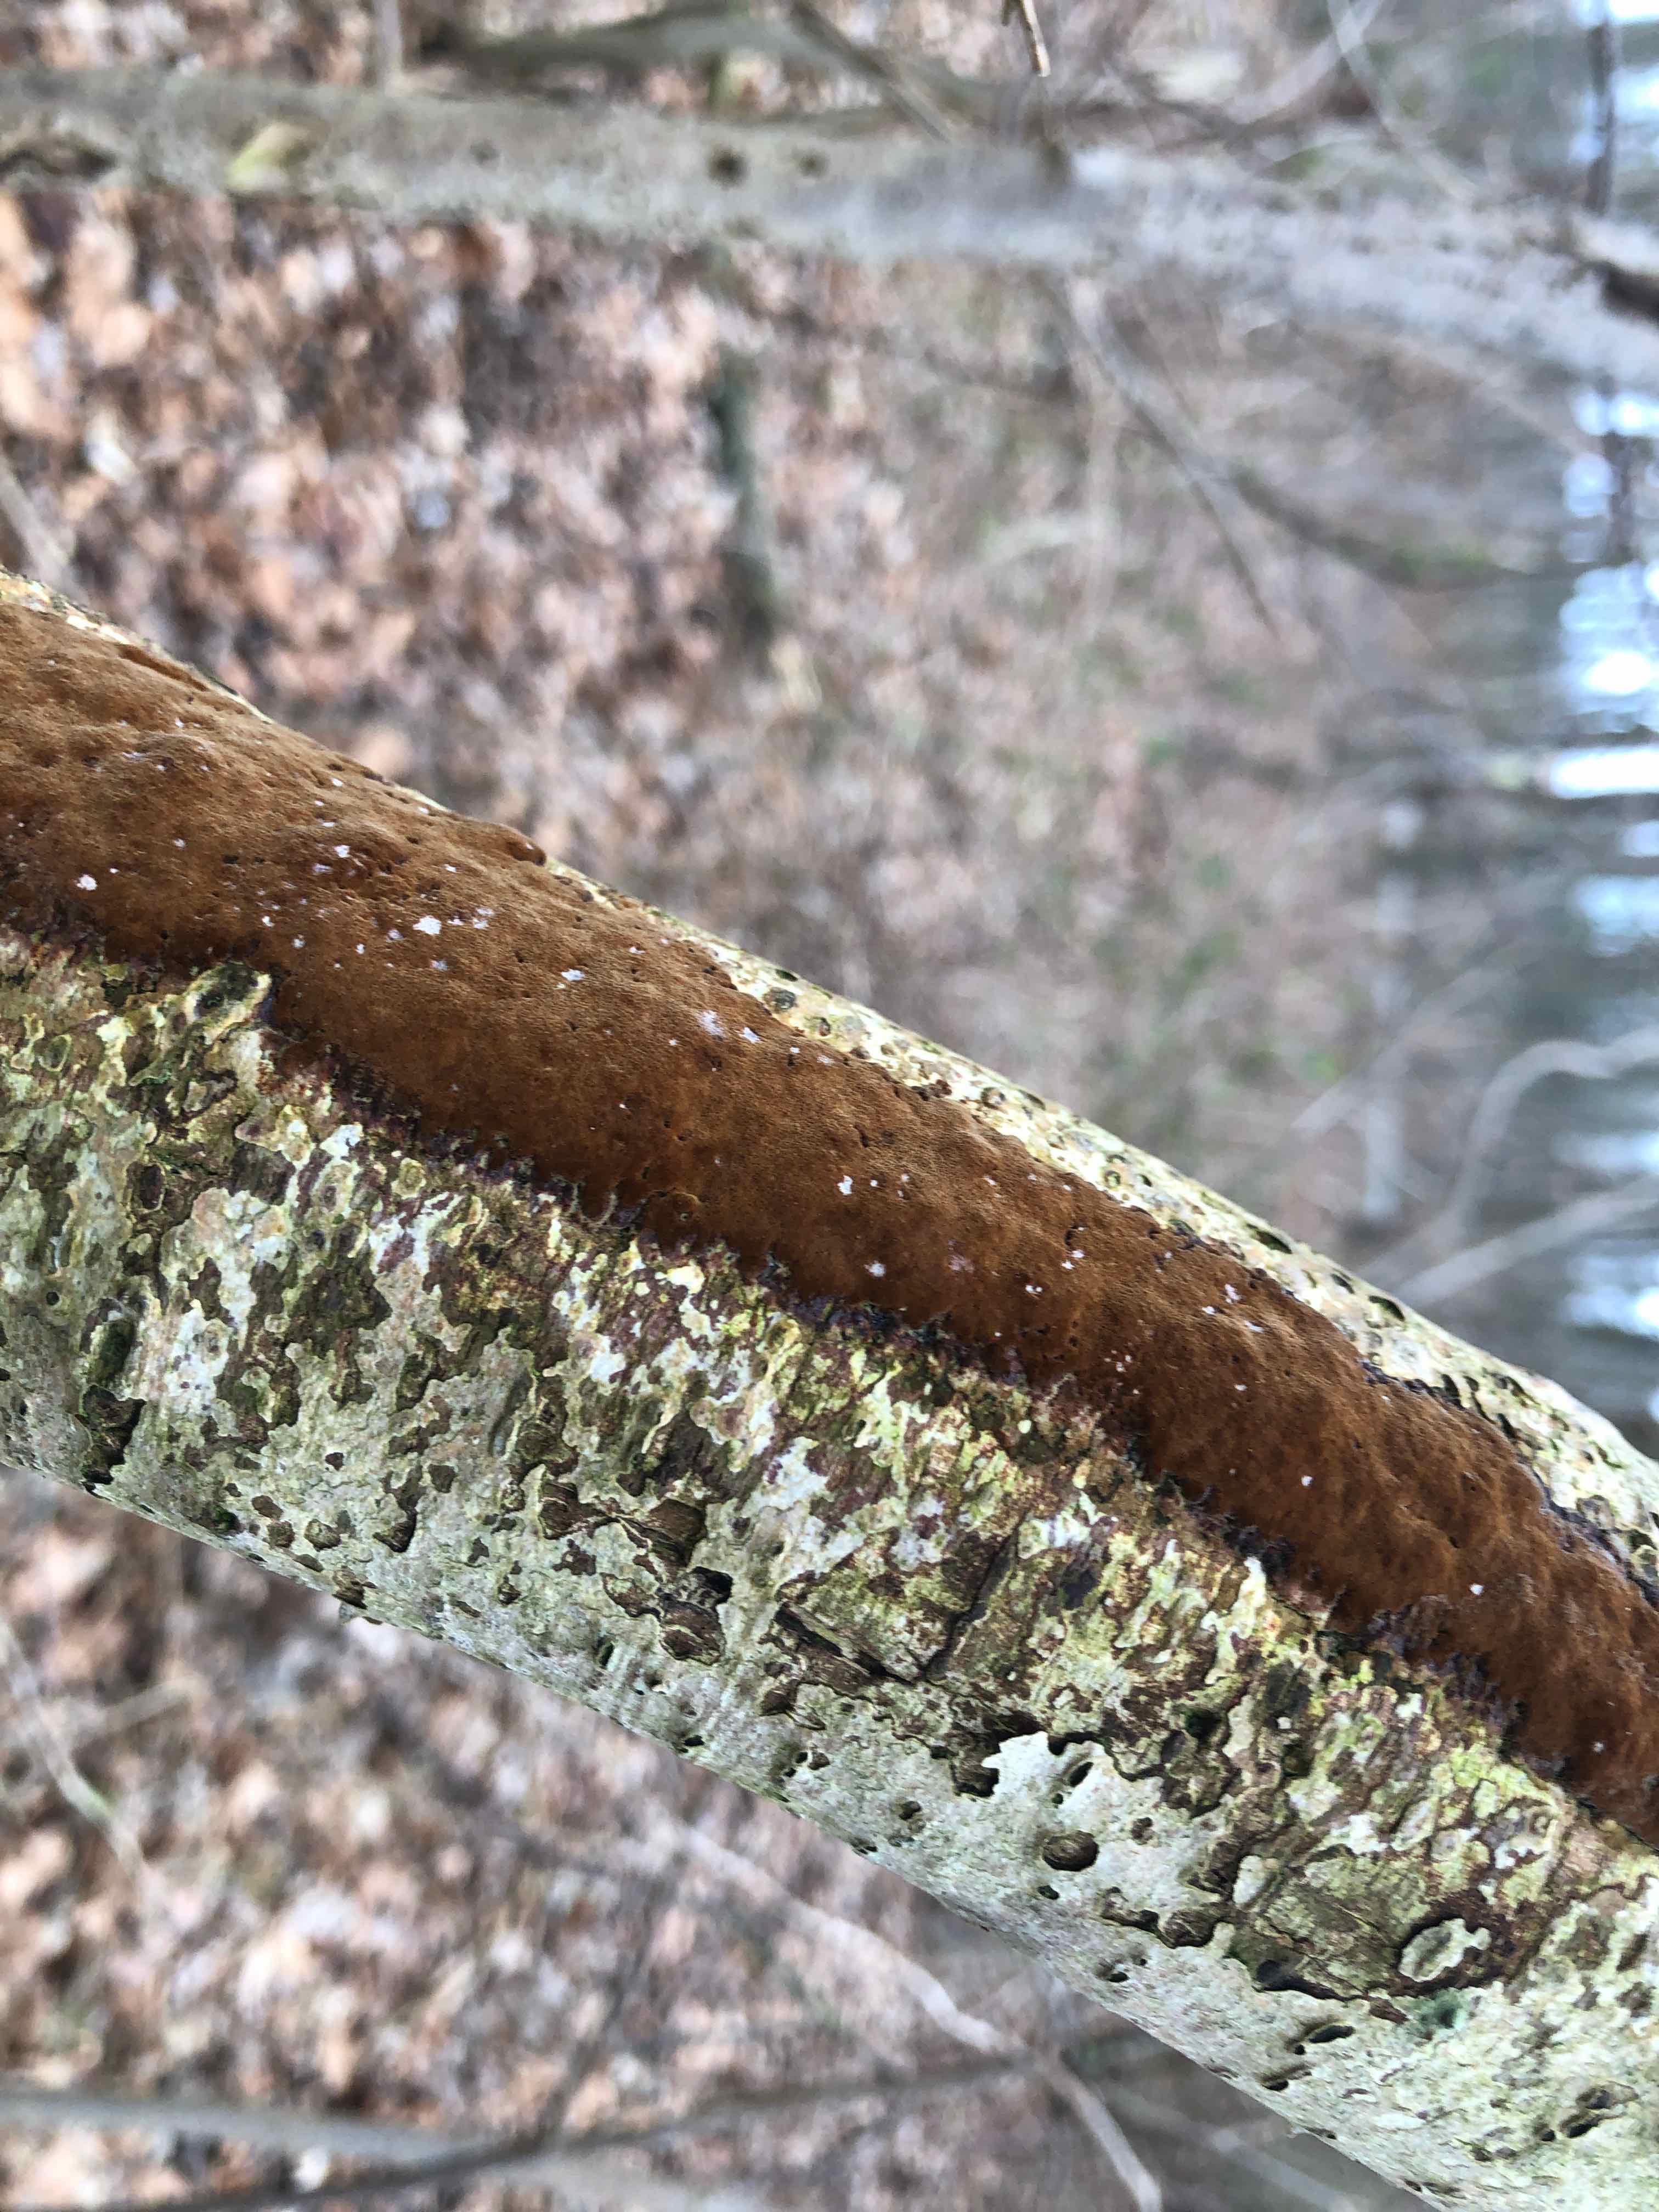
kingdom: Fungi
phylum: Basidiomycota
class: Agaricomycetes
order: Hymenochaetales
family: Hymenochaetaceae
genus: Fuscoporia
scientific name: Fuscoporia ferrea
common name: skorpe-ildporesvamp
